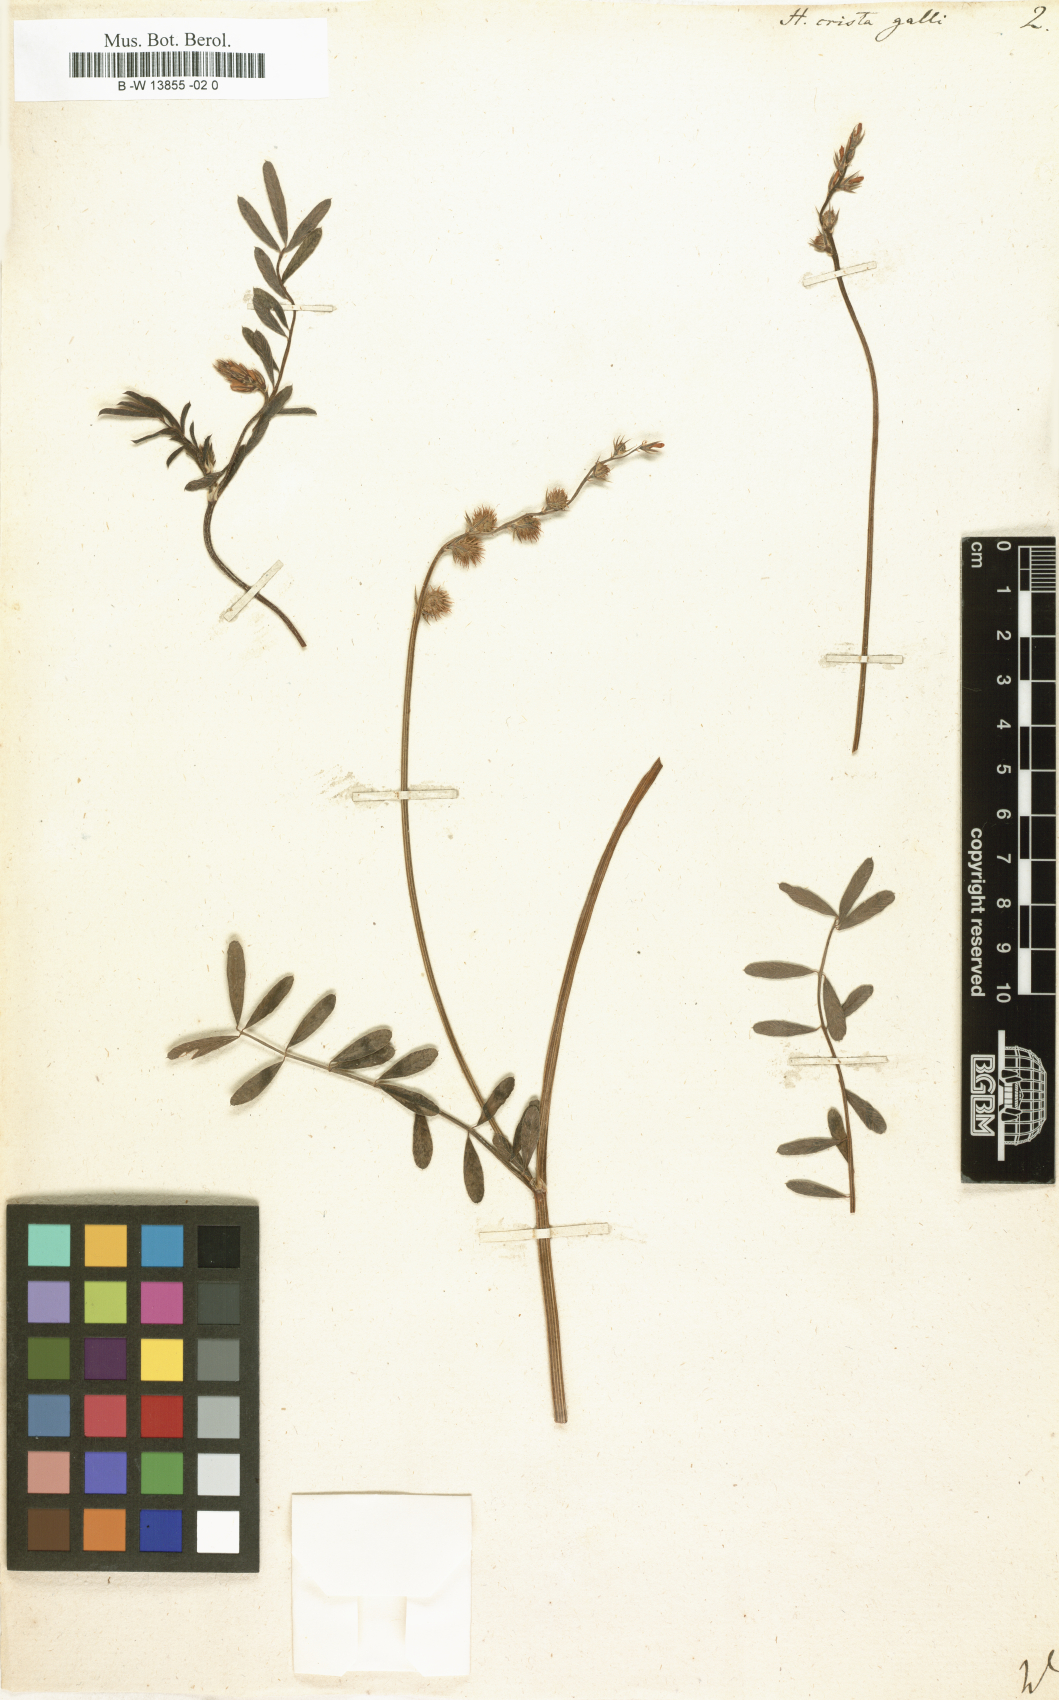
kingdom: Plantae
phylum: Tracheophyta
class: Magnoliopsida
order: Fabales
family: Fabaceae
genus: Onobrychis
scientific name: Onobrychis crista-galli
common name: Cockscomb sainfoin
